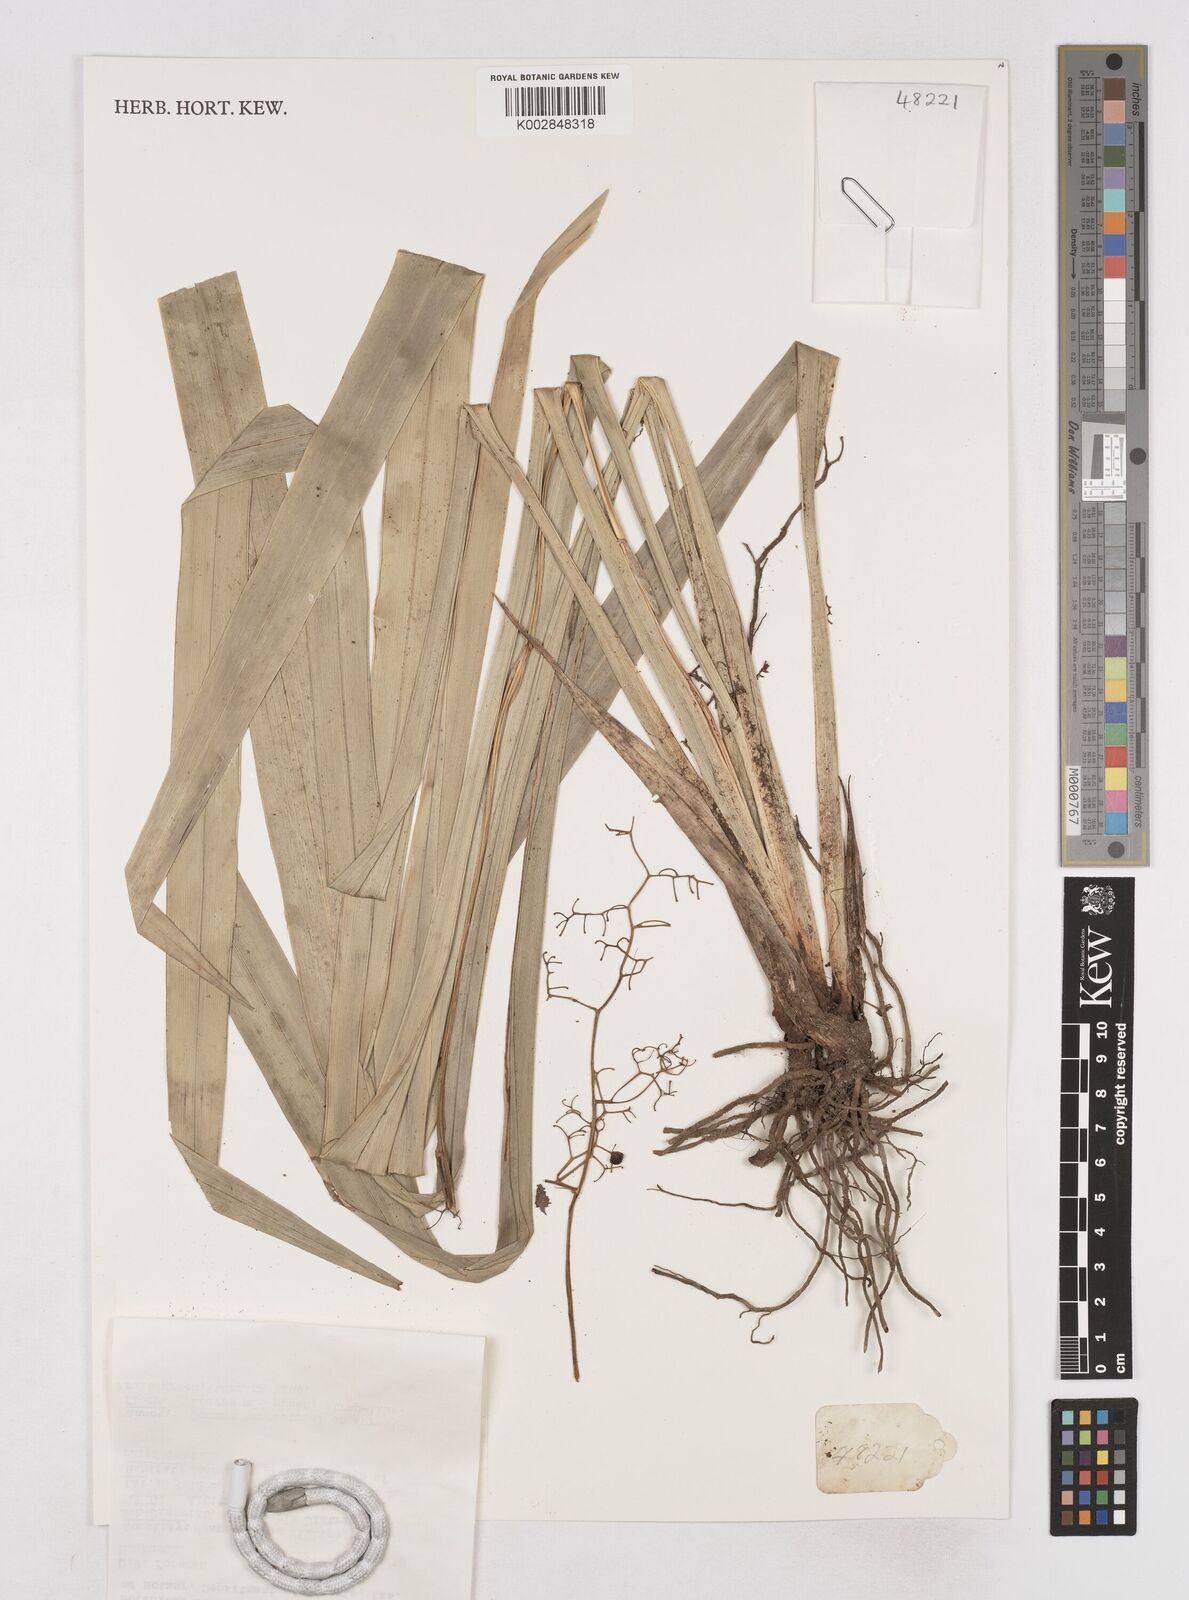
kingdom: Plantae
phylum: Tracheophyta
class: Liliopsida
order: Asparagales
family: Asphodelaceae
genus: Dianella
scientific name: Dianella ensifolia
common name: New zealand lilyplant
